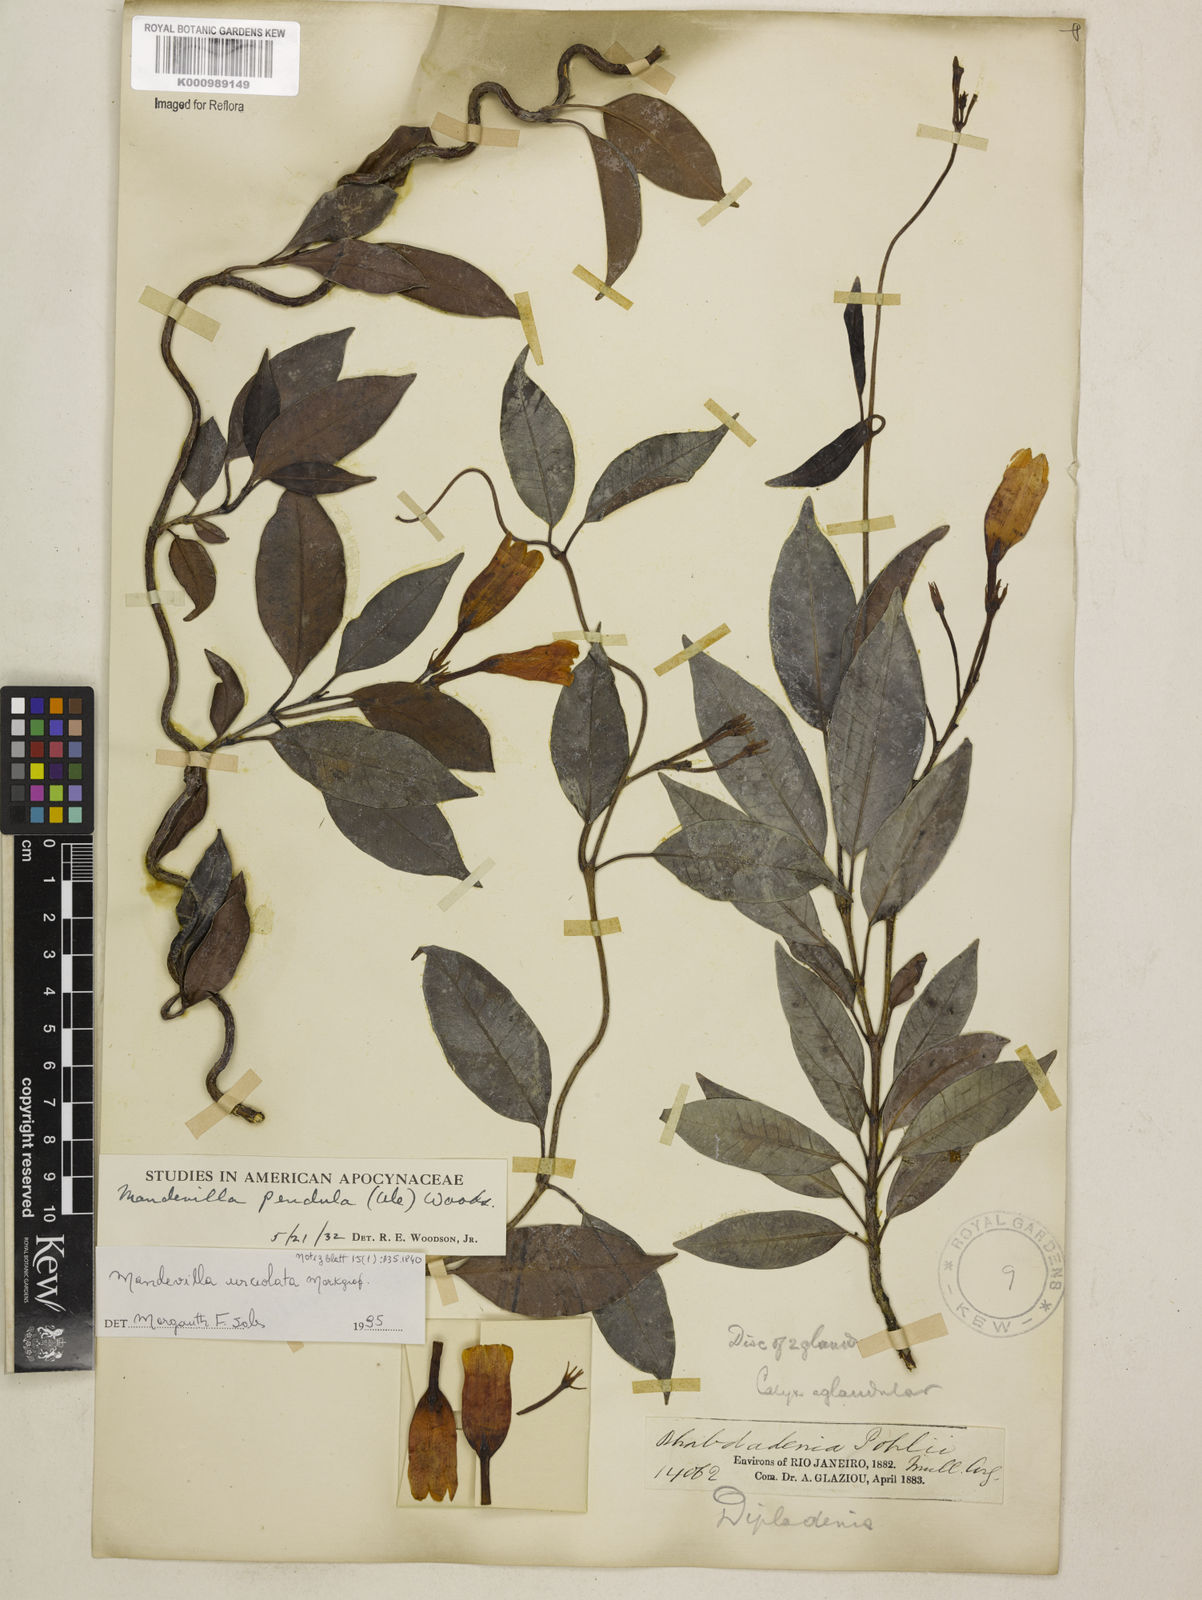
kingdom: Plantae
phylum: Tracheophyta
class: Magnoliopsida
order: Gentianales
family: Apocynaceae
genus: Mandevilla
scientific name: Mandevilla pendula
